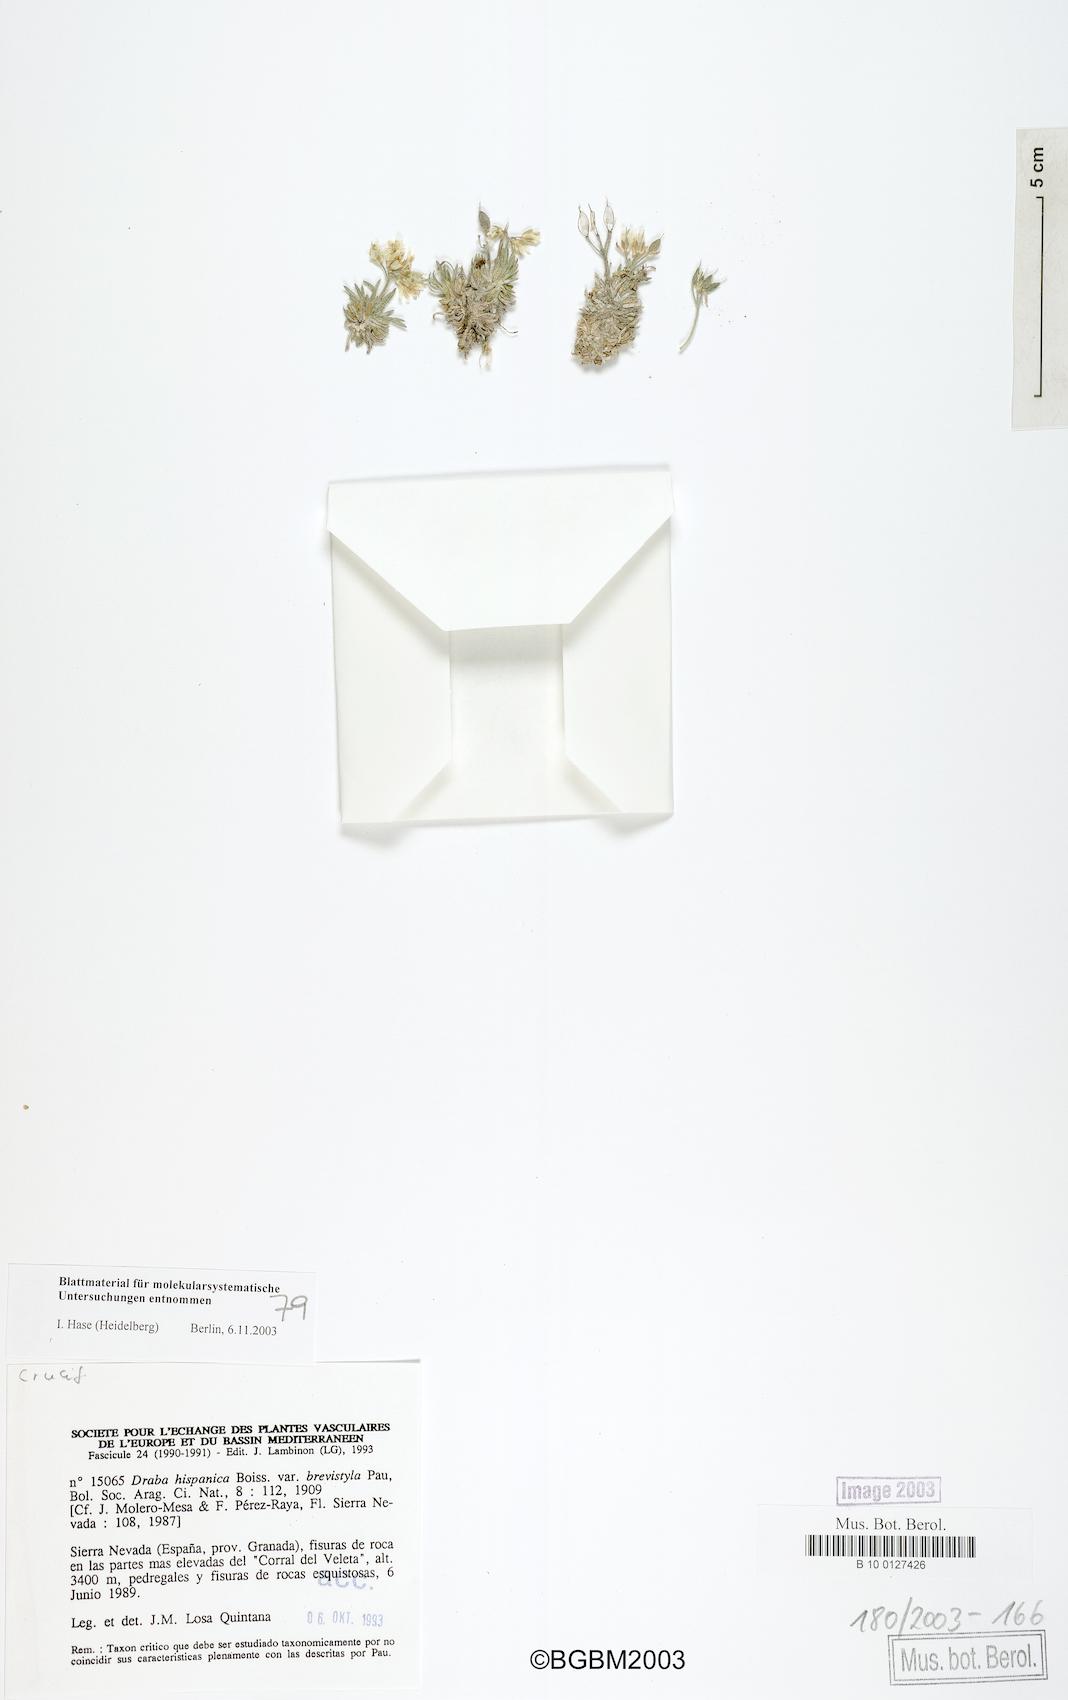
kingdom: Plantae
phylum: Tracheophyta
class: Magnoliopsida
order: Brassicales
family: Brassicaceae
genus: Draba
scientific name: Draba hispanica
